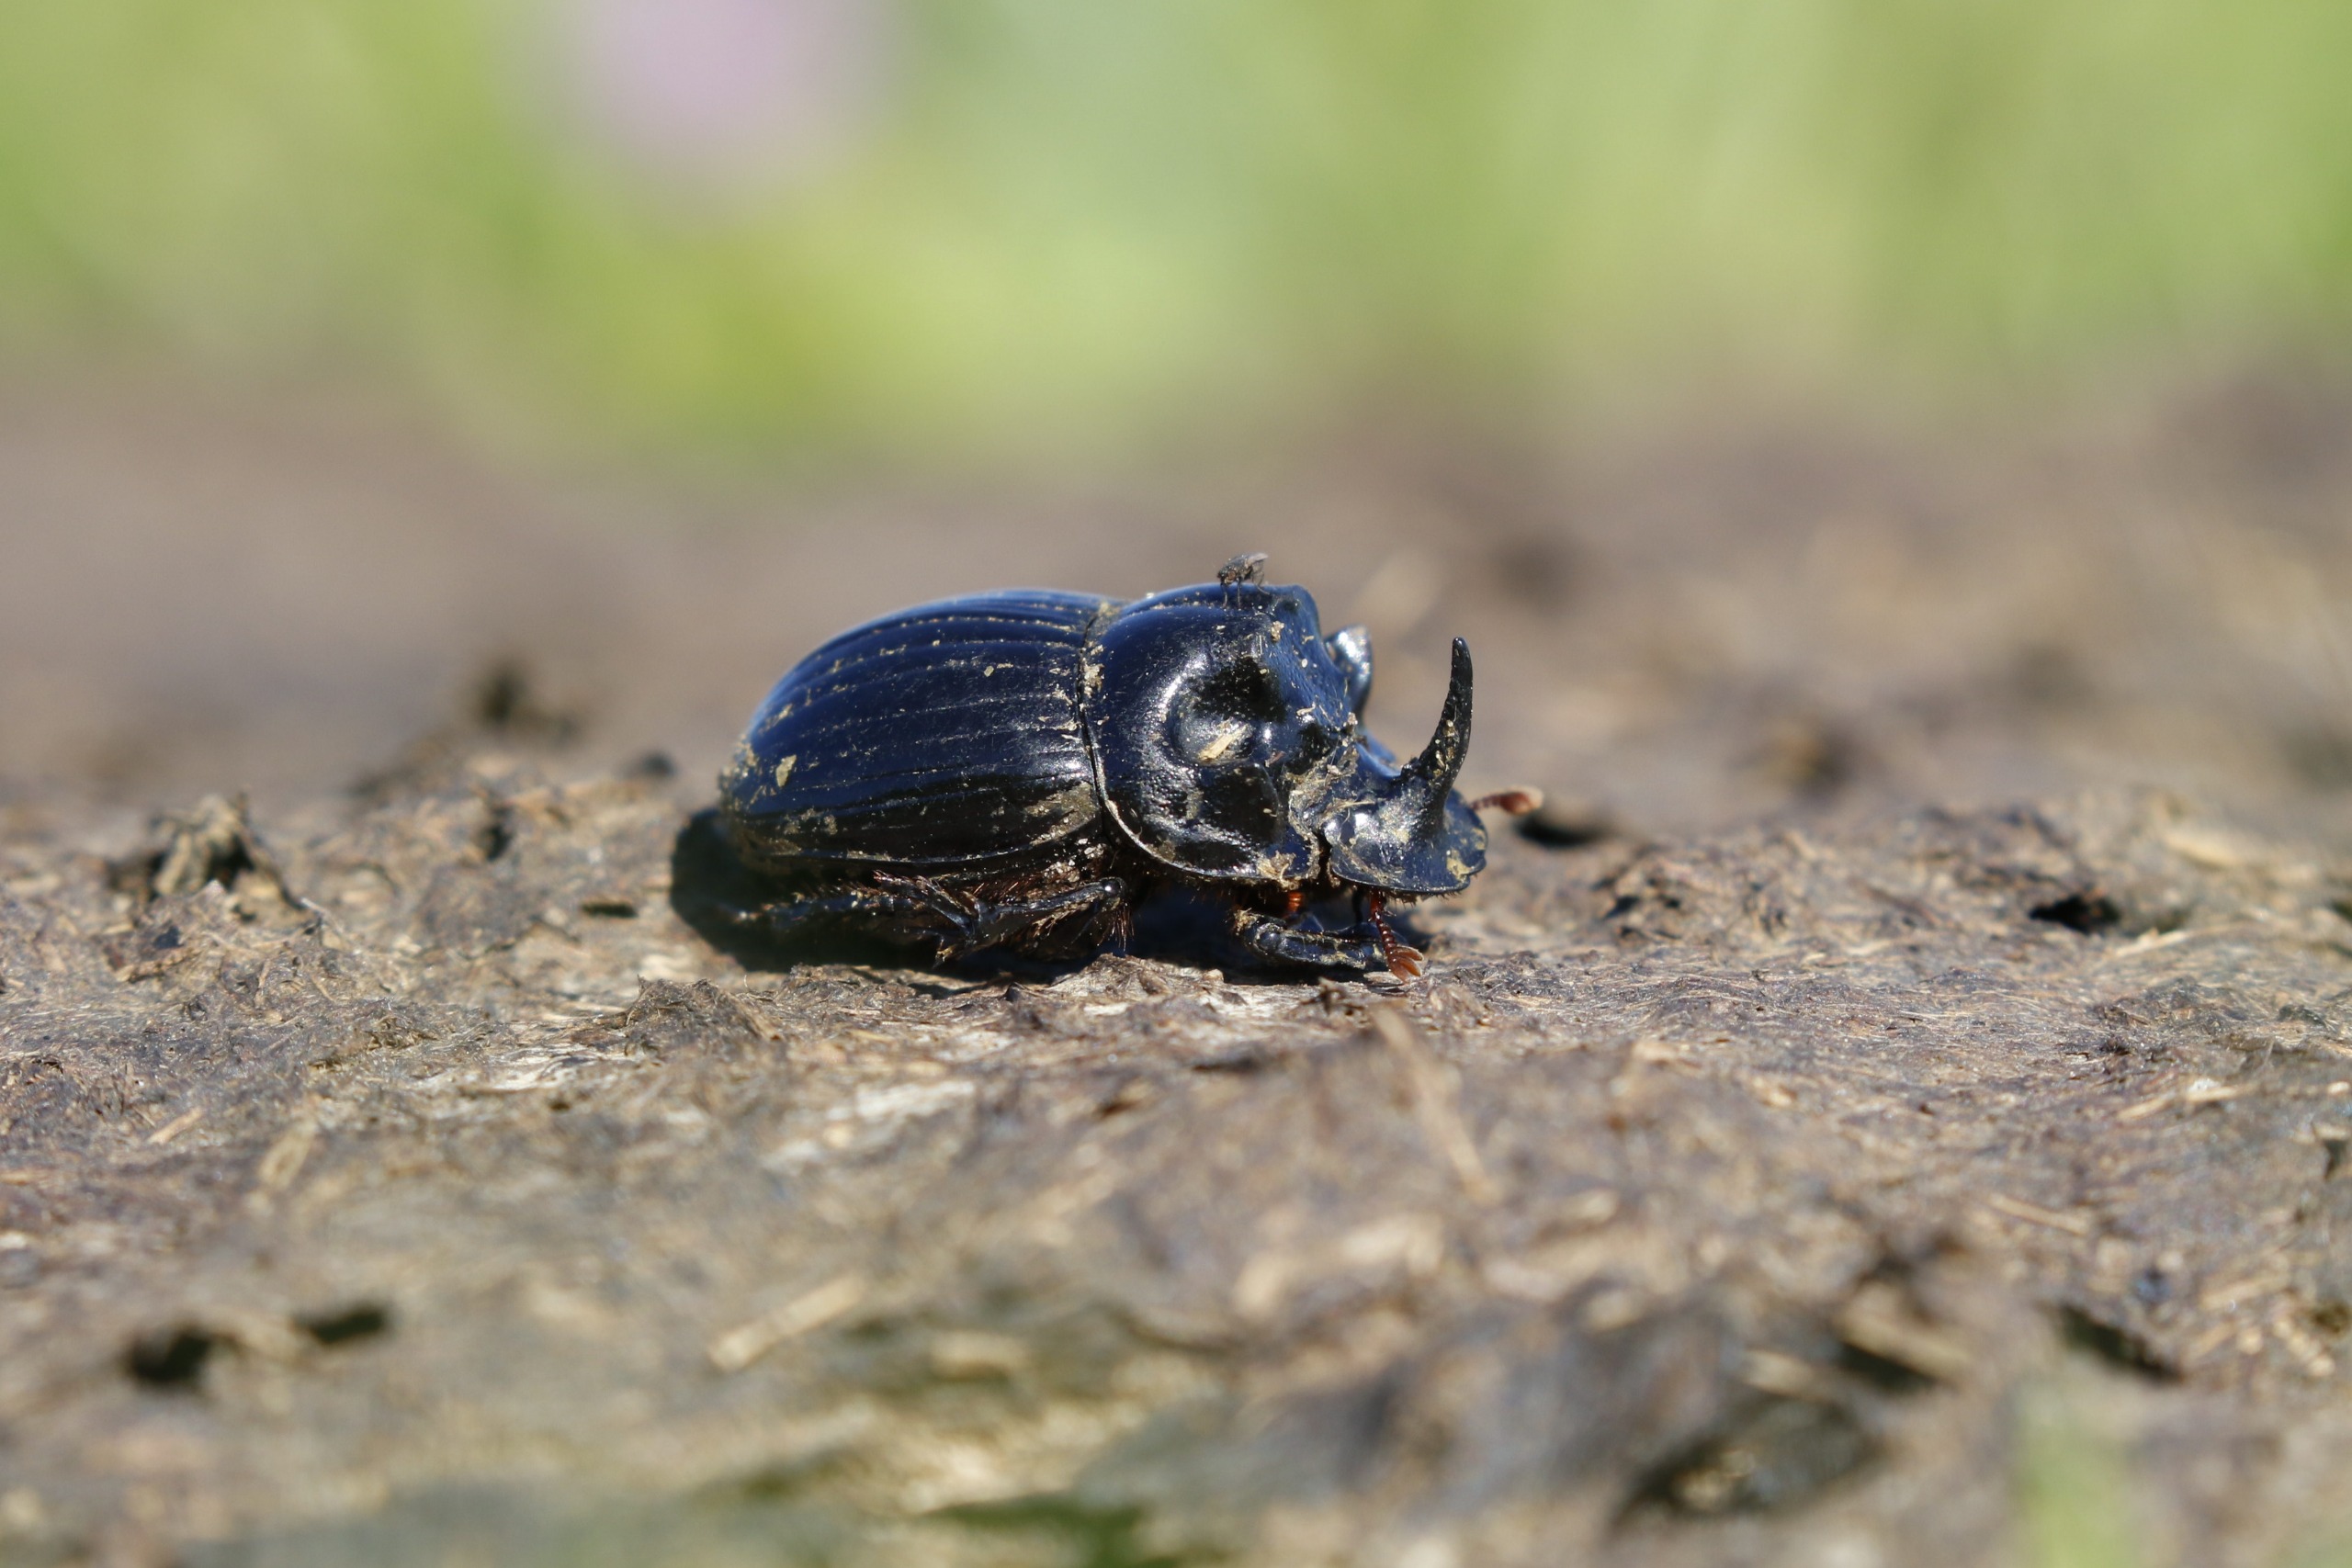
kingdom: Animalia
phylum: Arthropoda
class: Insecta
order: Coleoptera
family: Scarabaeidae
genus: Copris
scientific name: Copris lunaris
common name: Månetorbist
